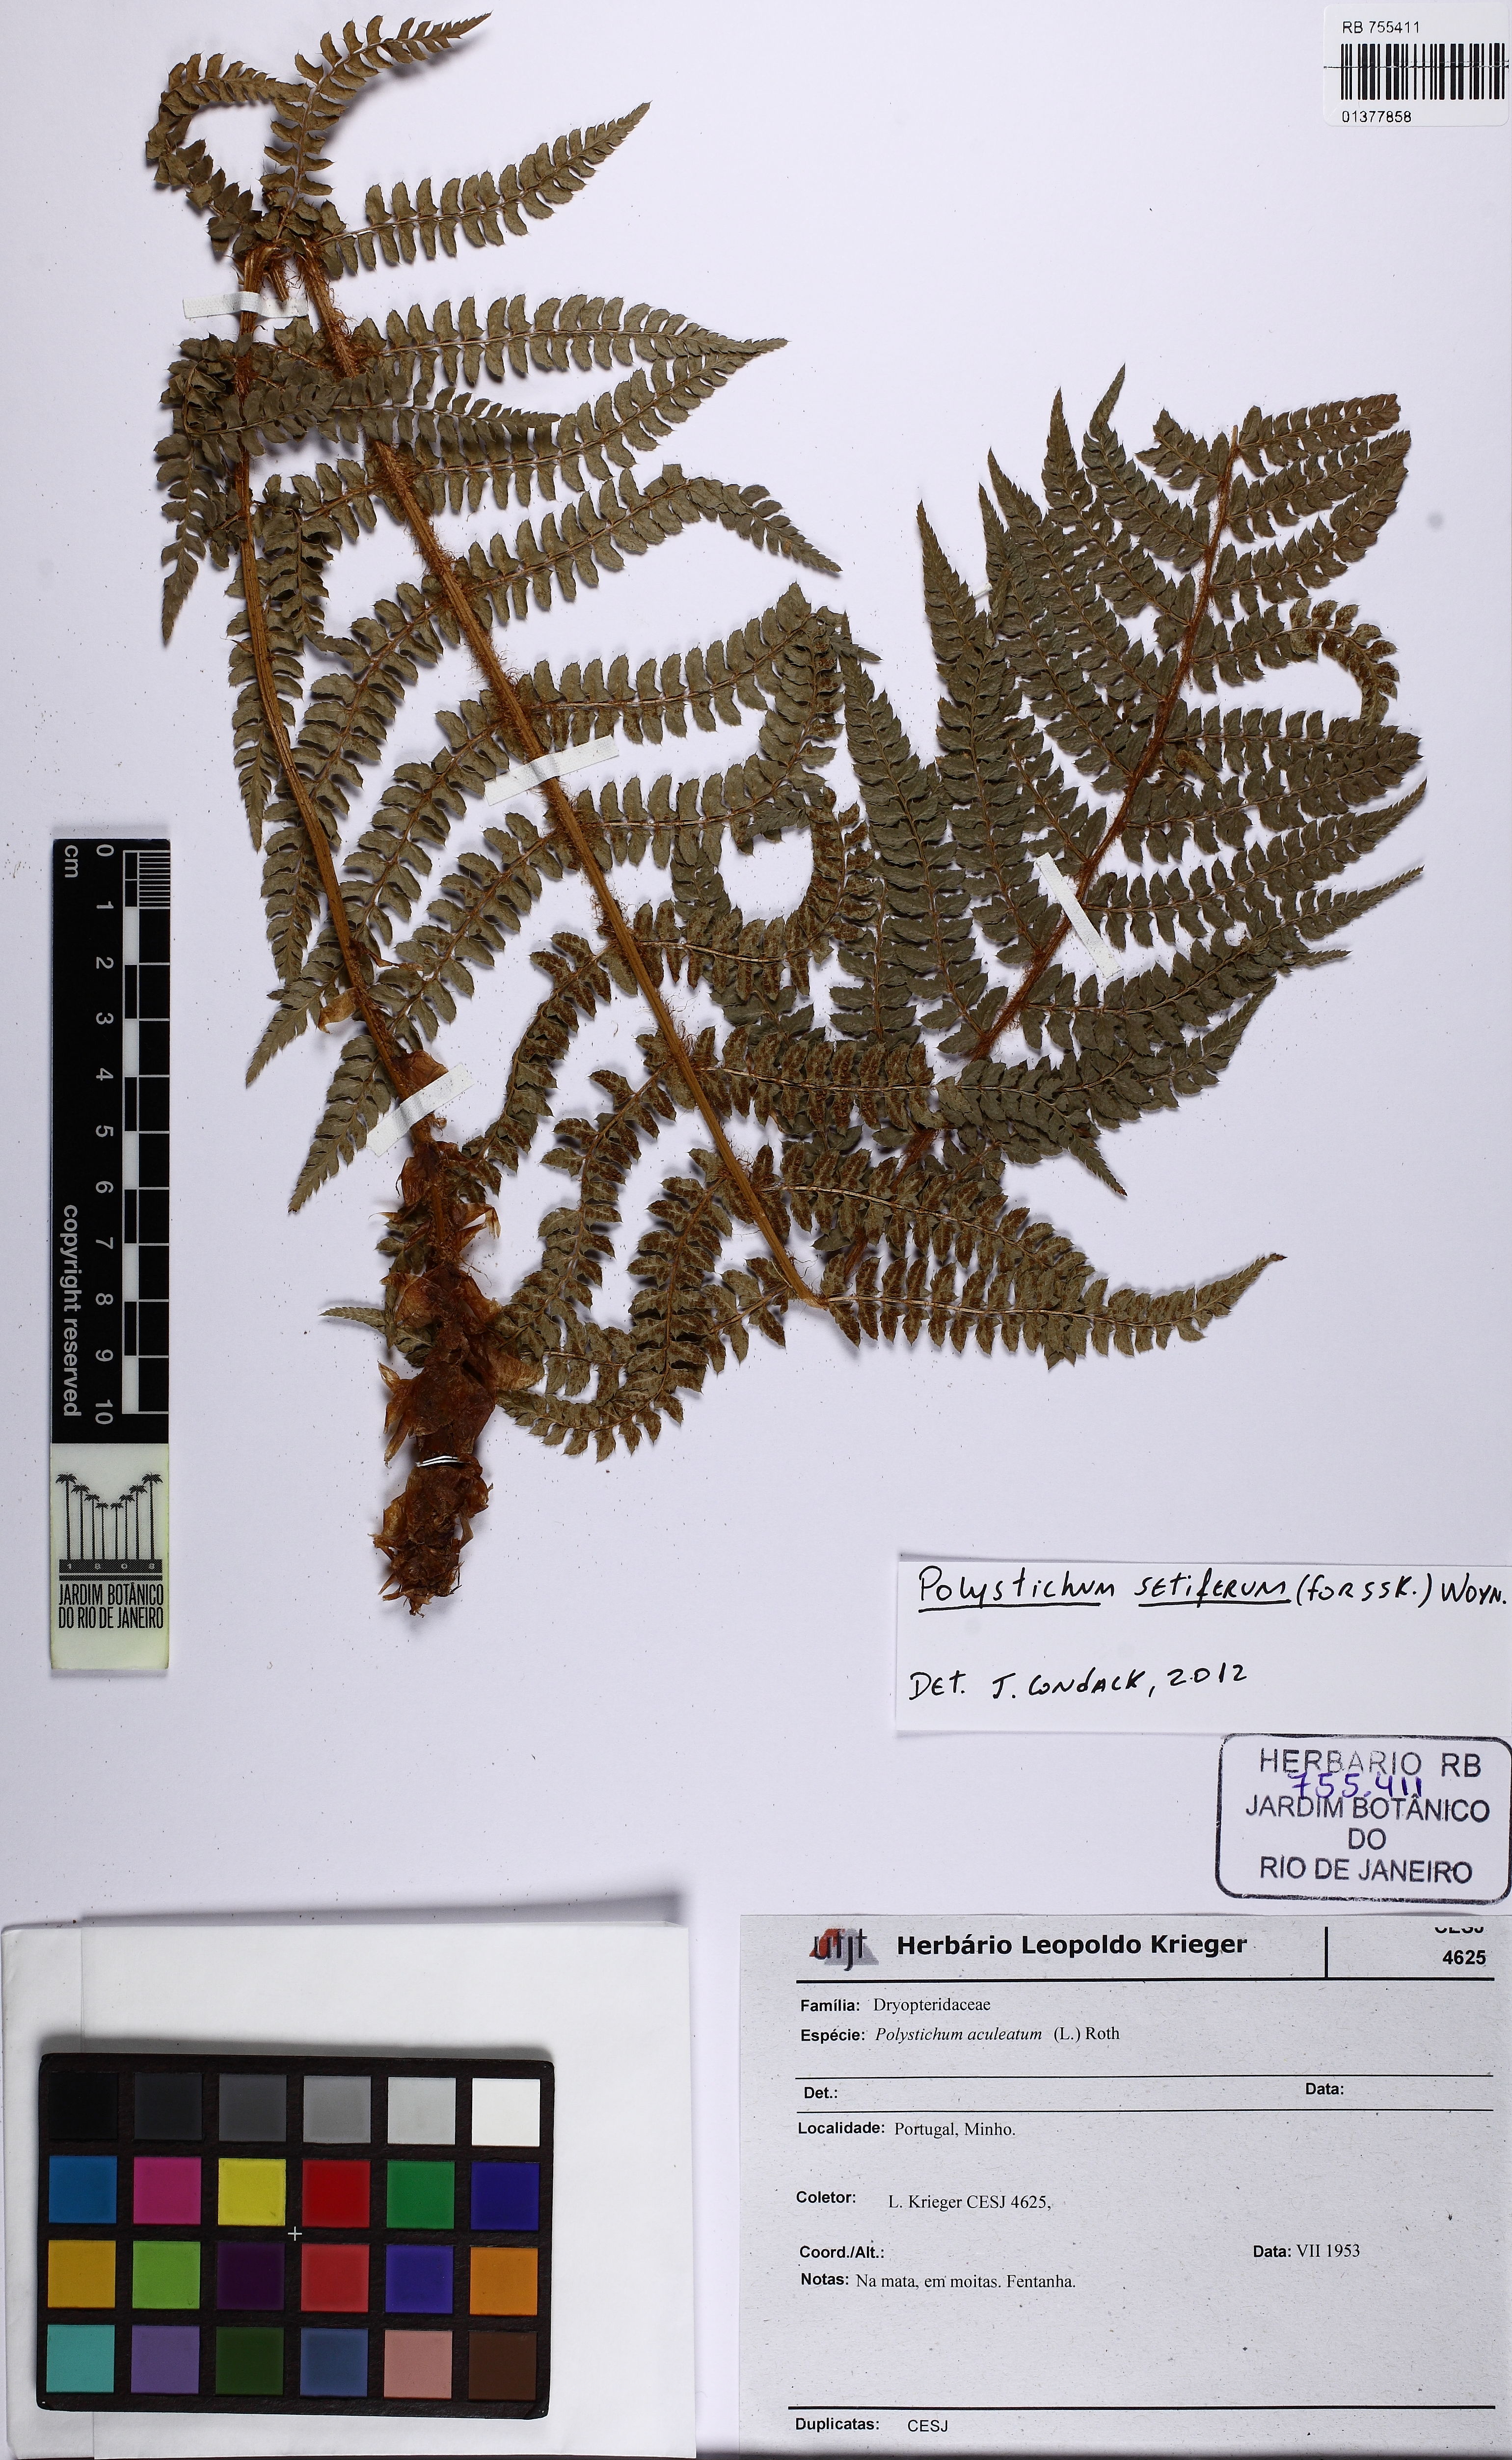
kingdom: Plantae
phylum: Tracheophyta
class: Polypodiopsida
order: Polypodiales
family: Dryopteridaceae
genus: Polystichum
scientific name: Polystichum setiferum
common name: Soft shield-fern
